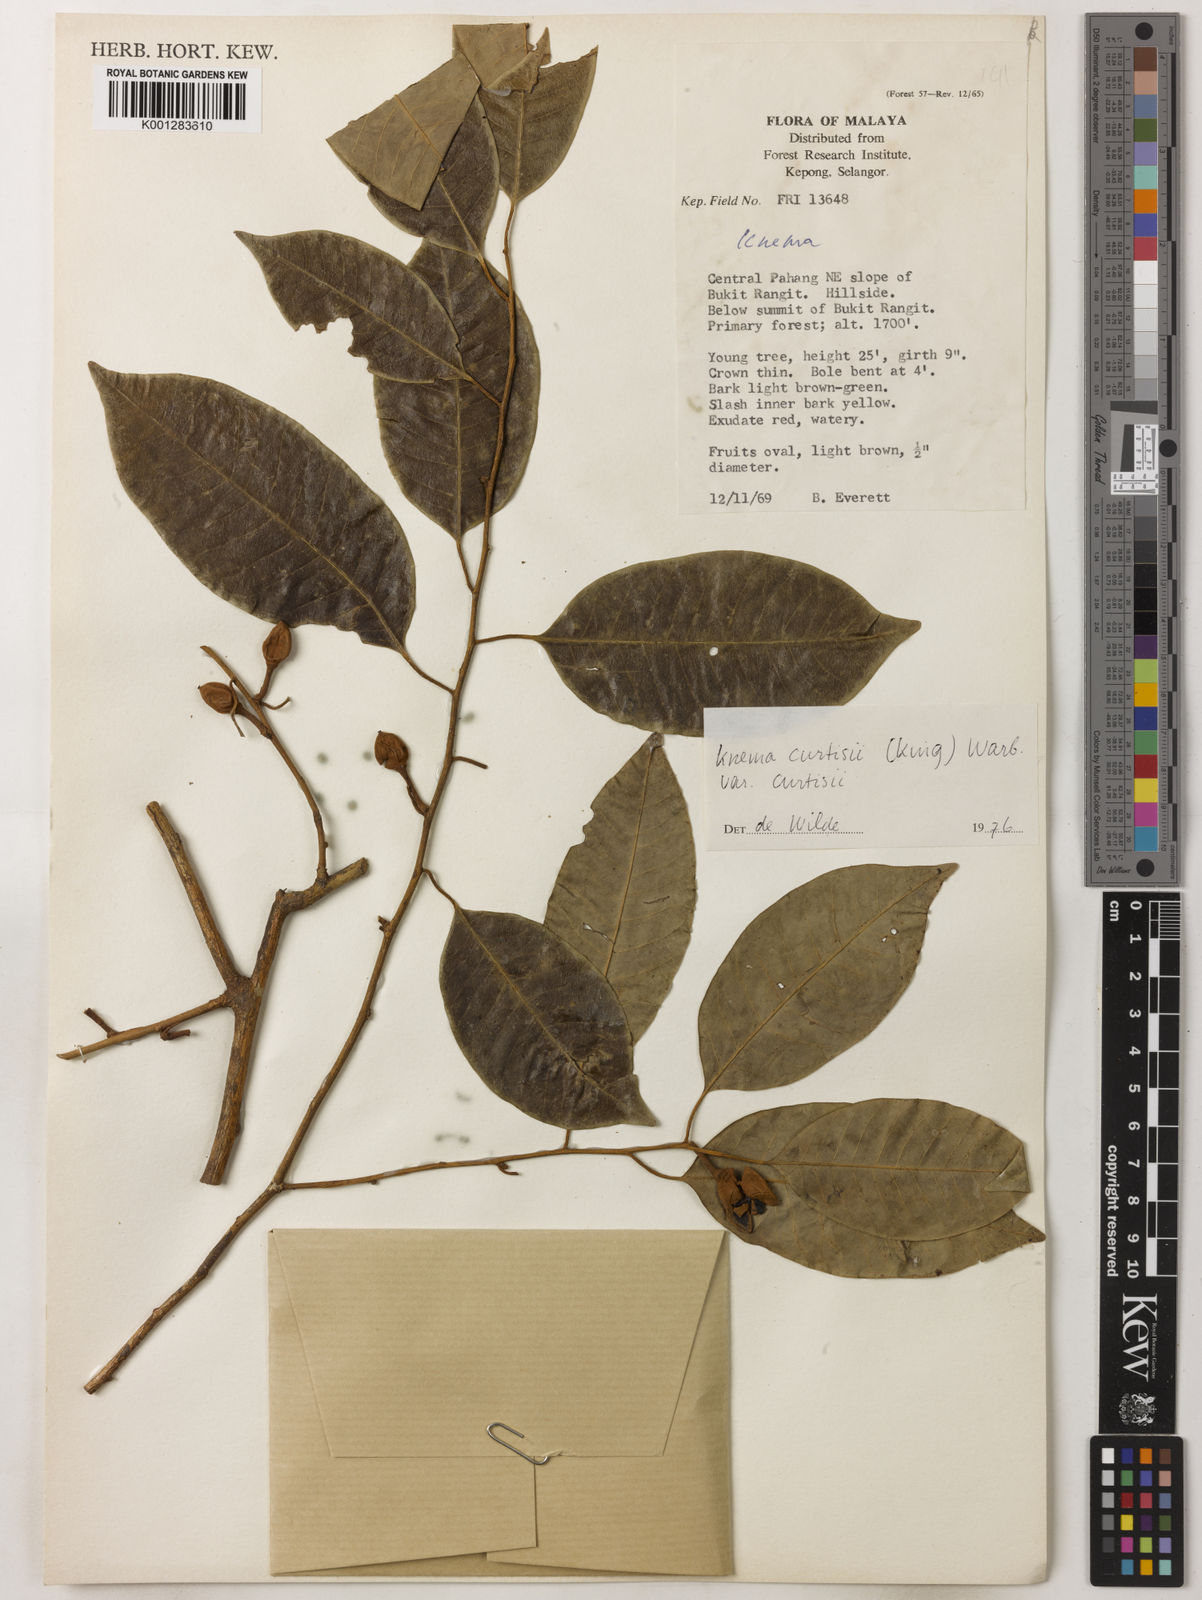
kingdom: Plantae
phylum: Tracheophyta
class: Magnoliopsida
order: Magnoliales
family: Myristicaceae
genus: Knema
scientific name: Knema curtisii
